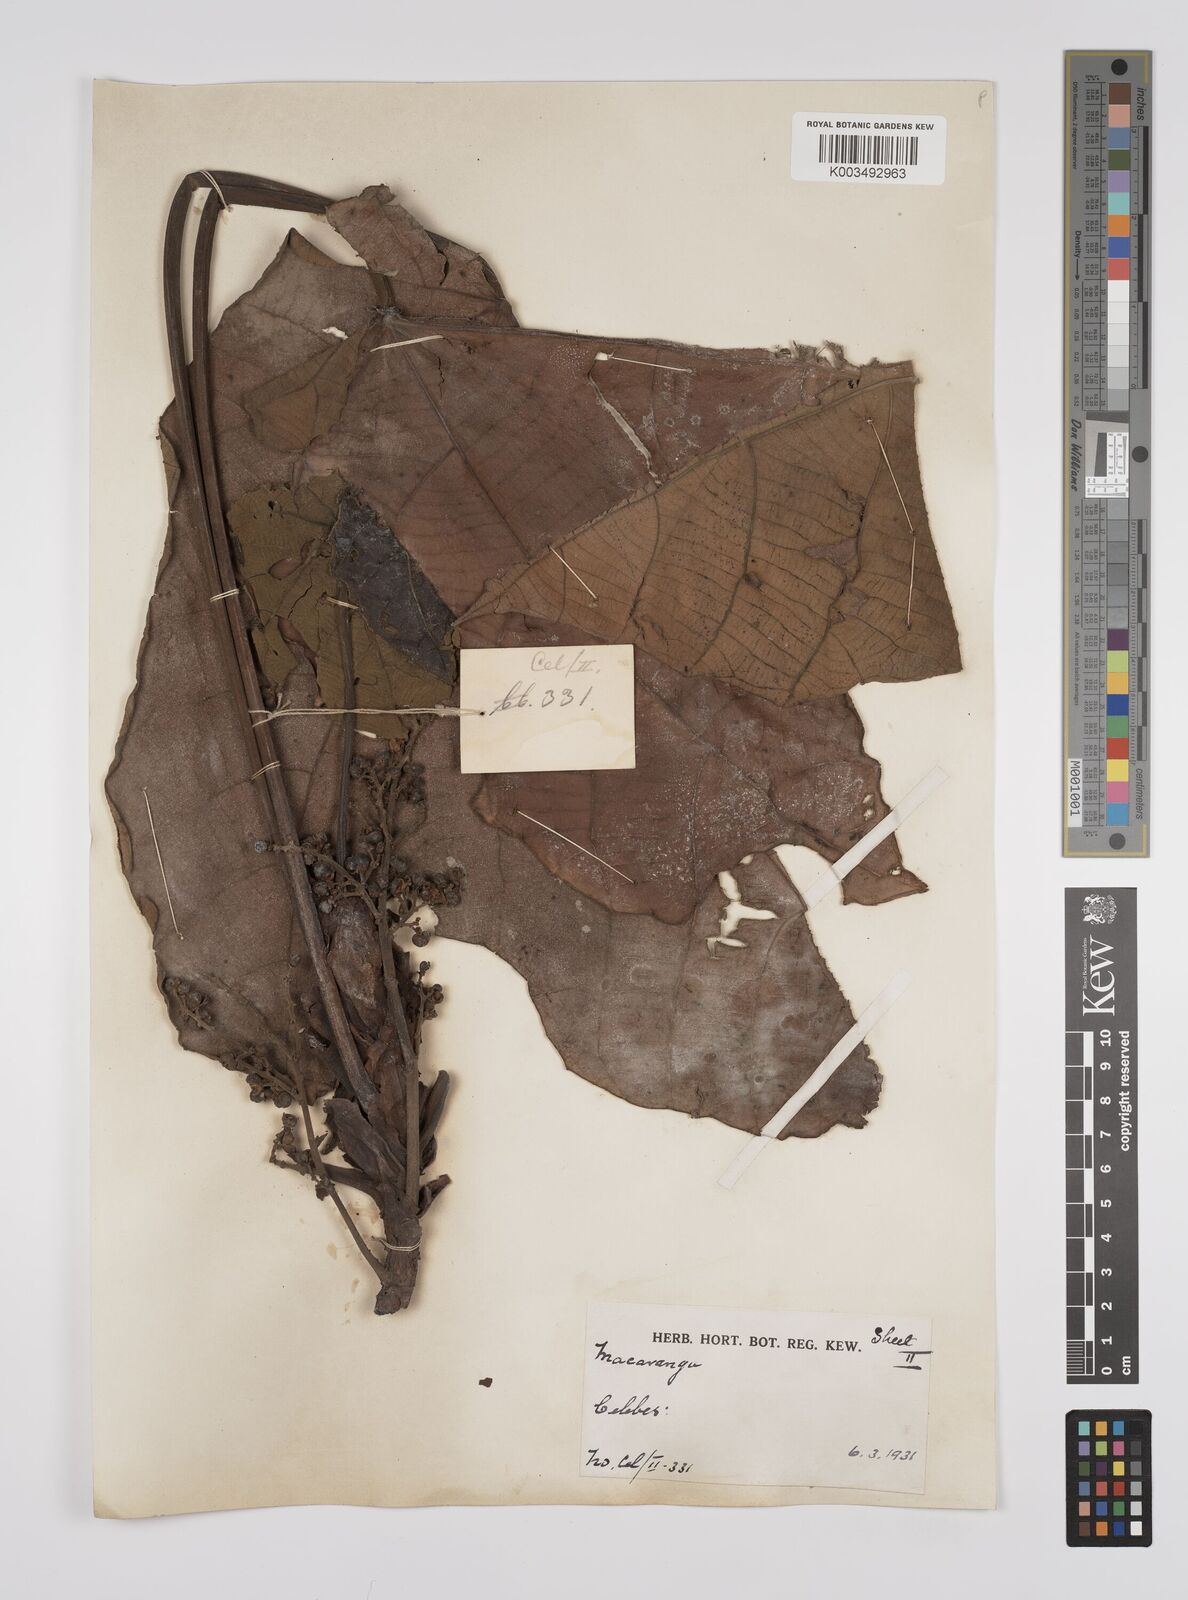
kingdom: Plantae
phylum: Tracheophyta
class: Magnoliopsida
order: Malpighiales
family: Euphorbiaceae
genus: Macaranga
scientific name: Macaranga gigantea
